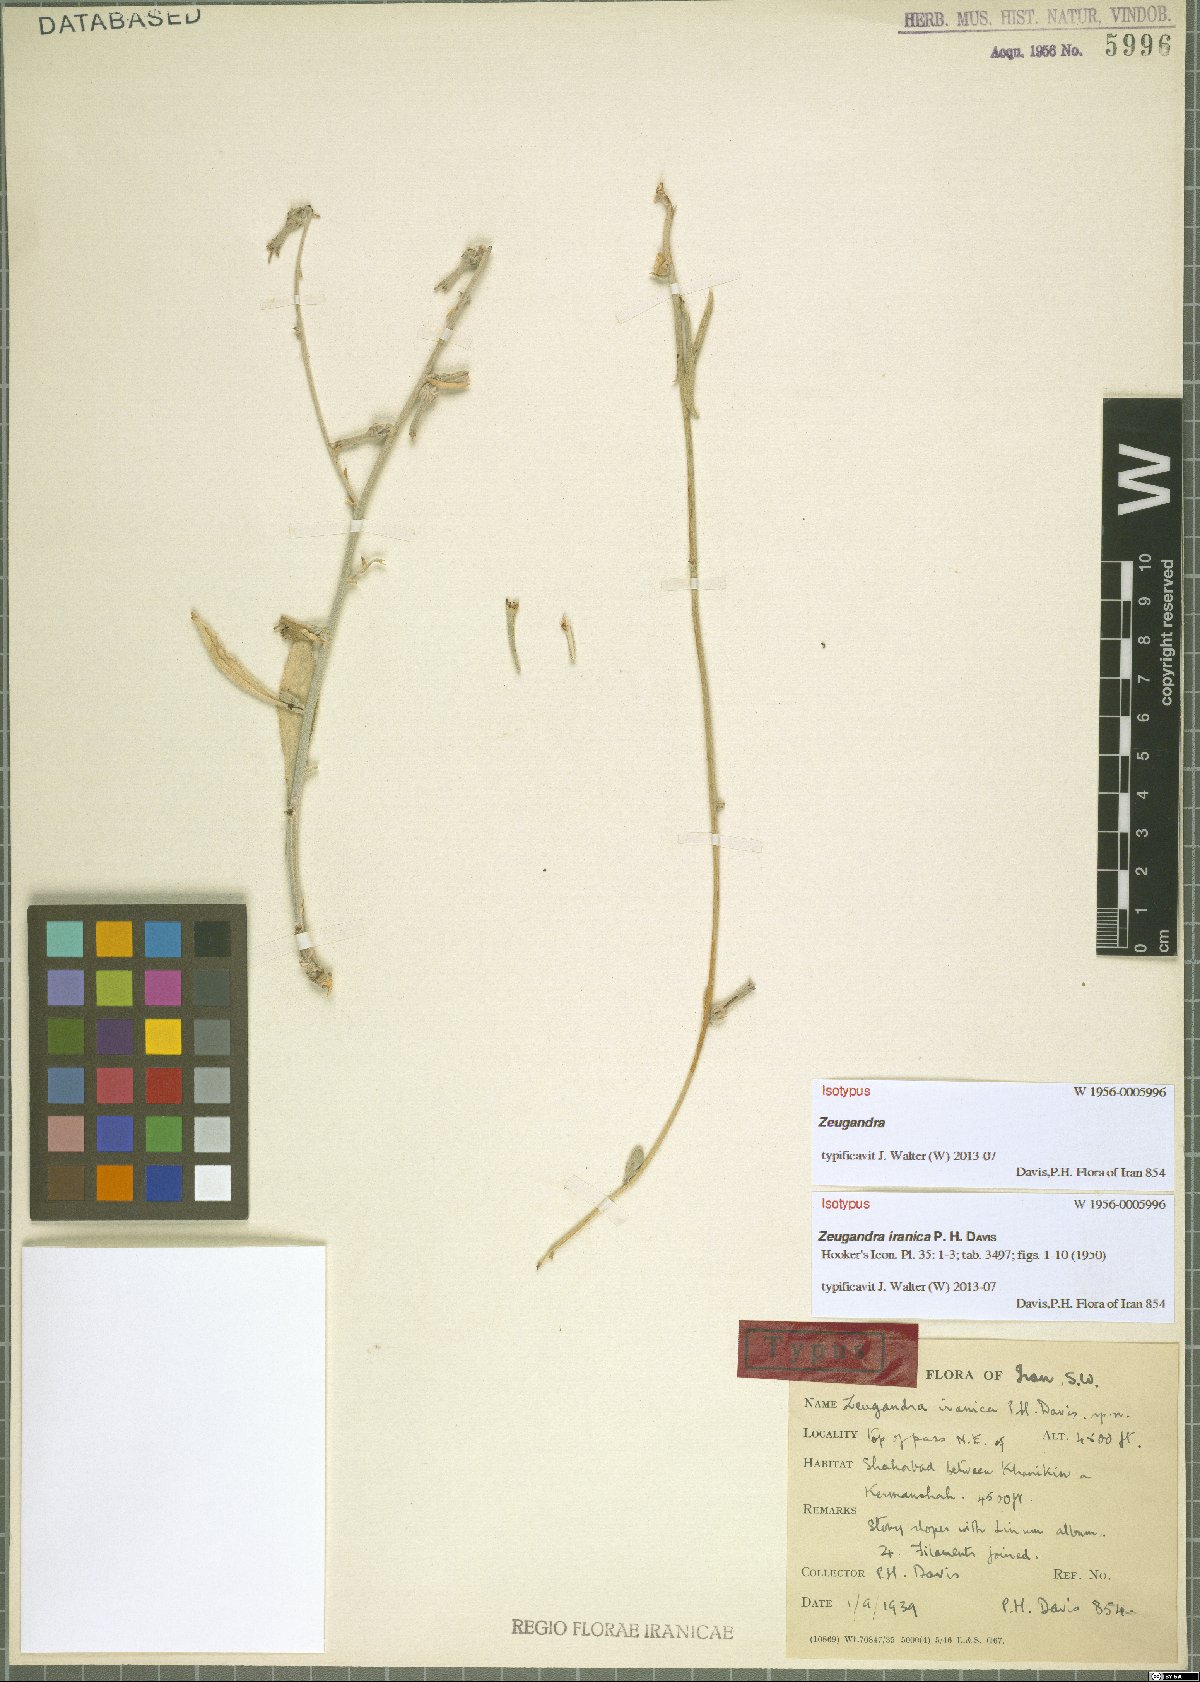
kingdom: Plantae
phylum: Tracheophyta
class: Magnoliopsida
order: Asterales
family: Campanulaceae
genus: Zeugandra
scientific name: Zeugandra iranica
